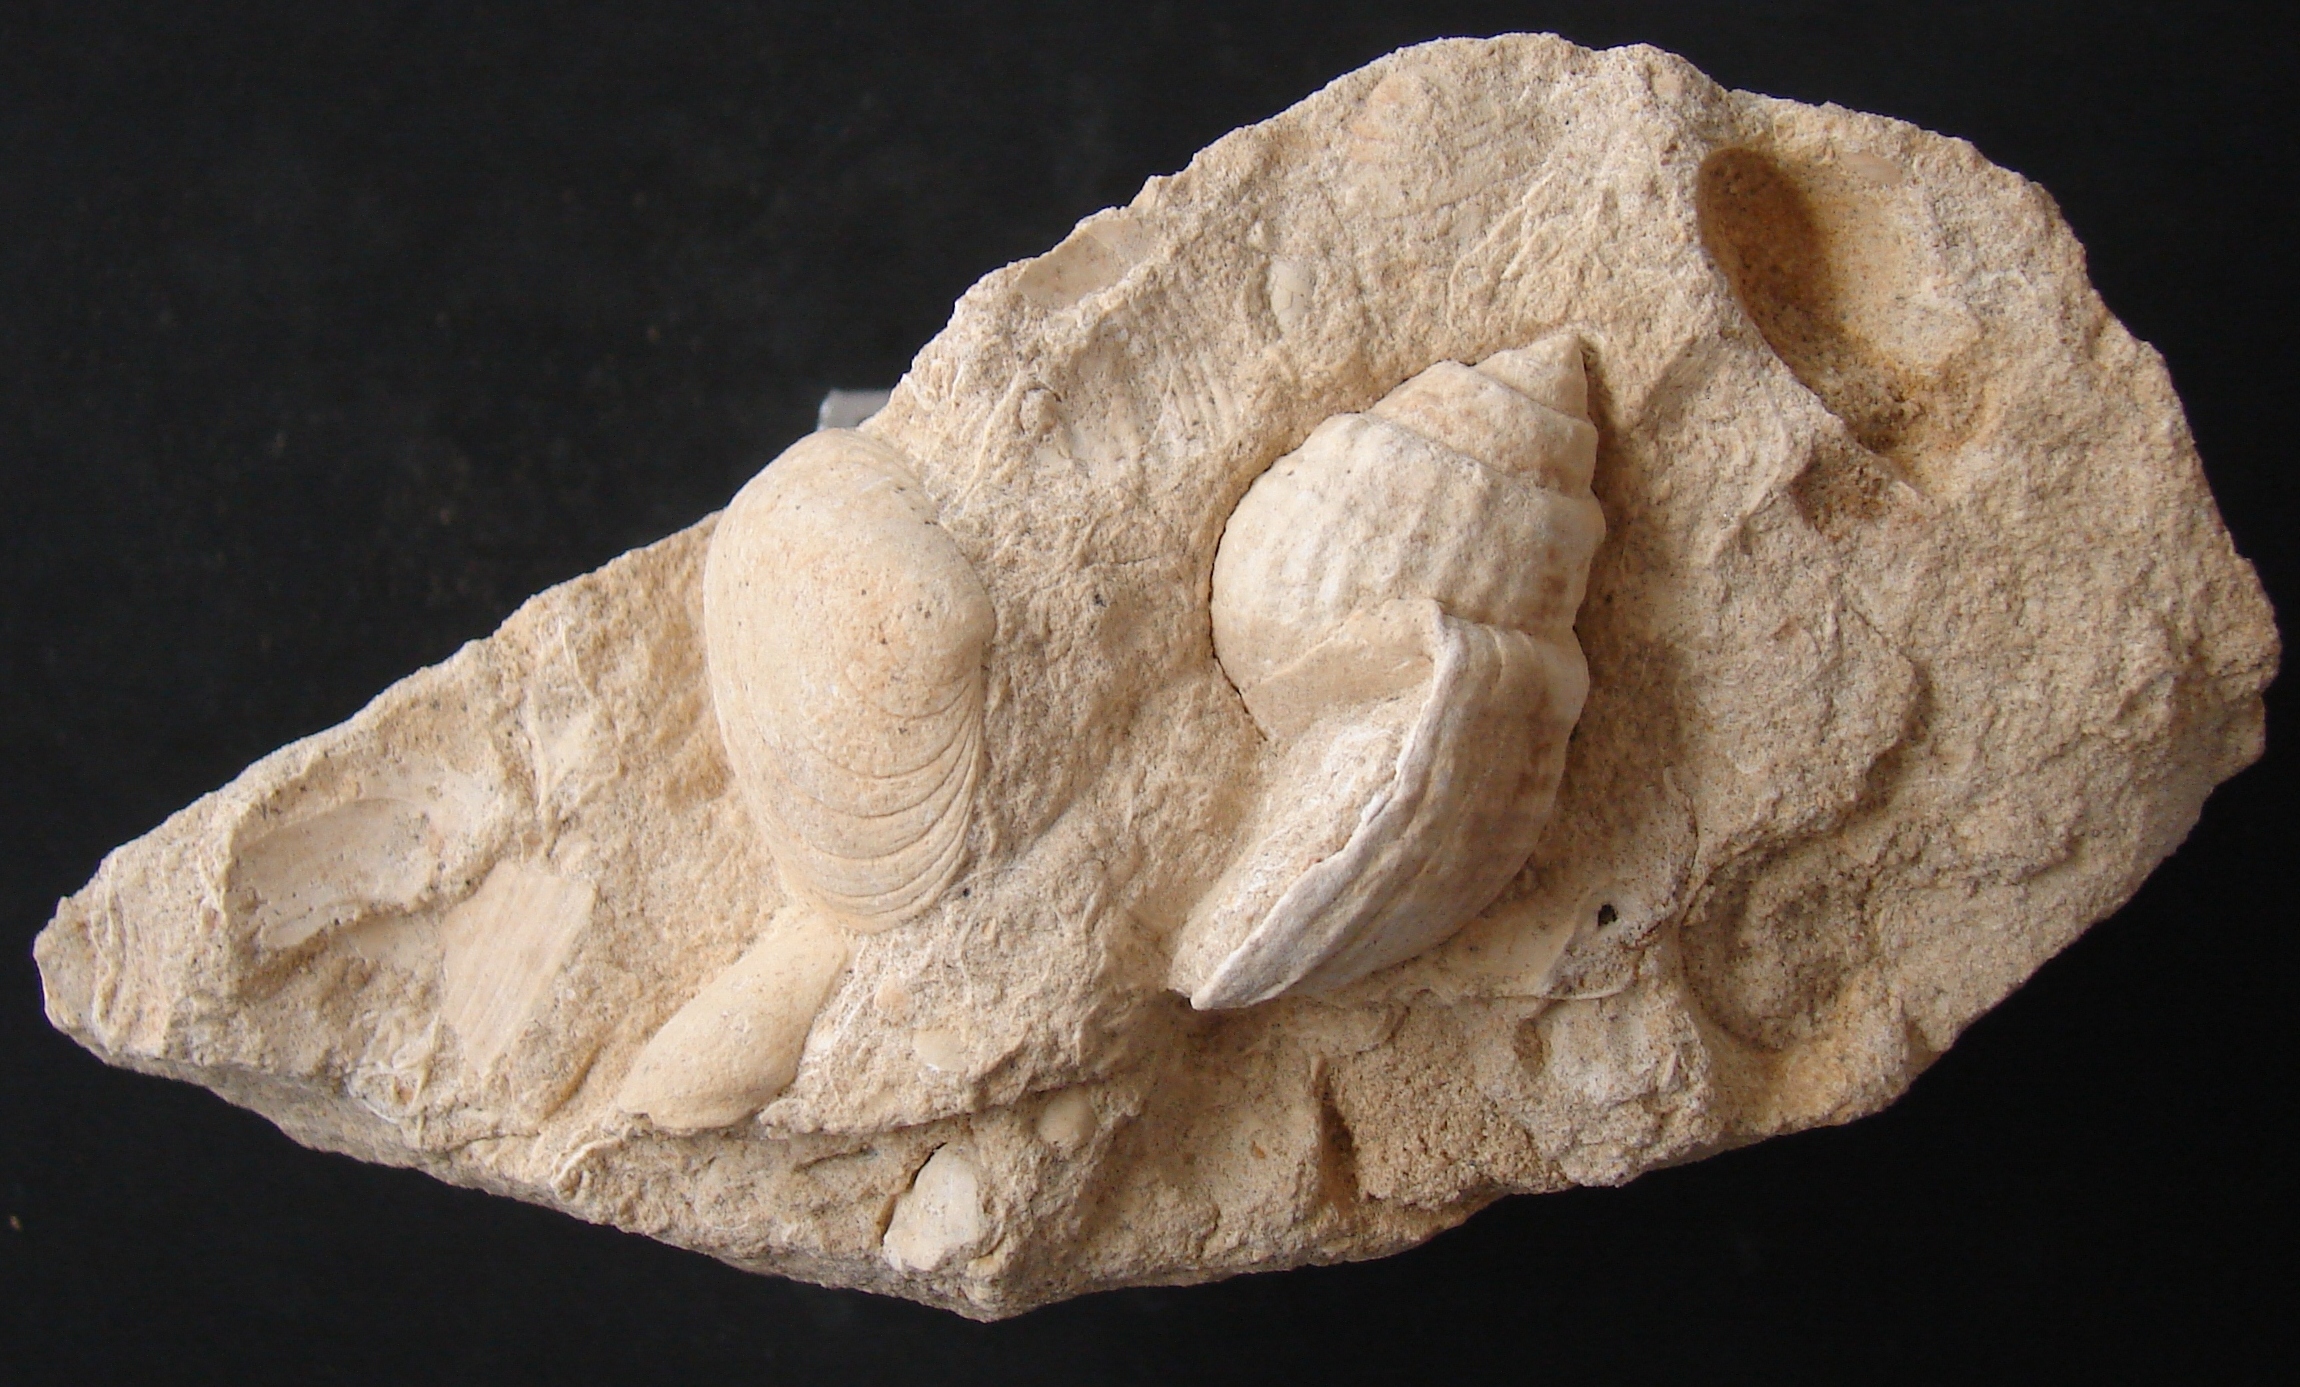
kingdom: Animalia
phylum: Mollusca
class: Gastropoda
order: Neogastropoda
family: Purpurinidae
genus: Microschiza
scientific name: Microschiza
